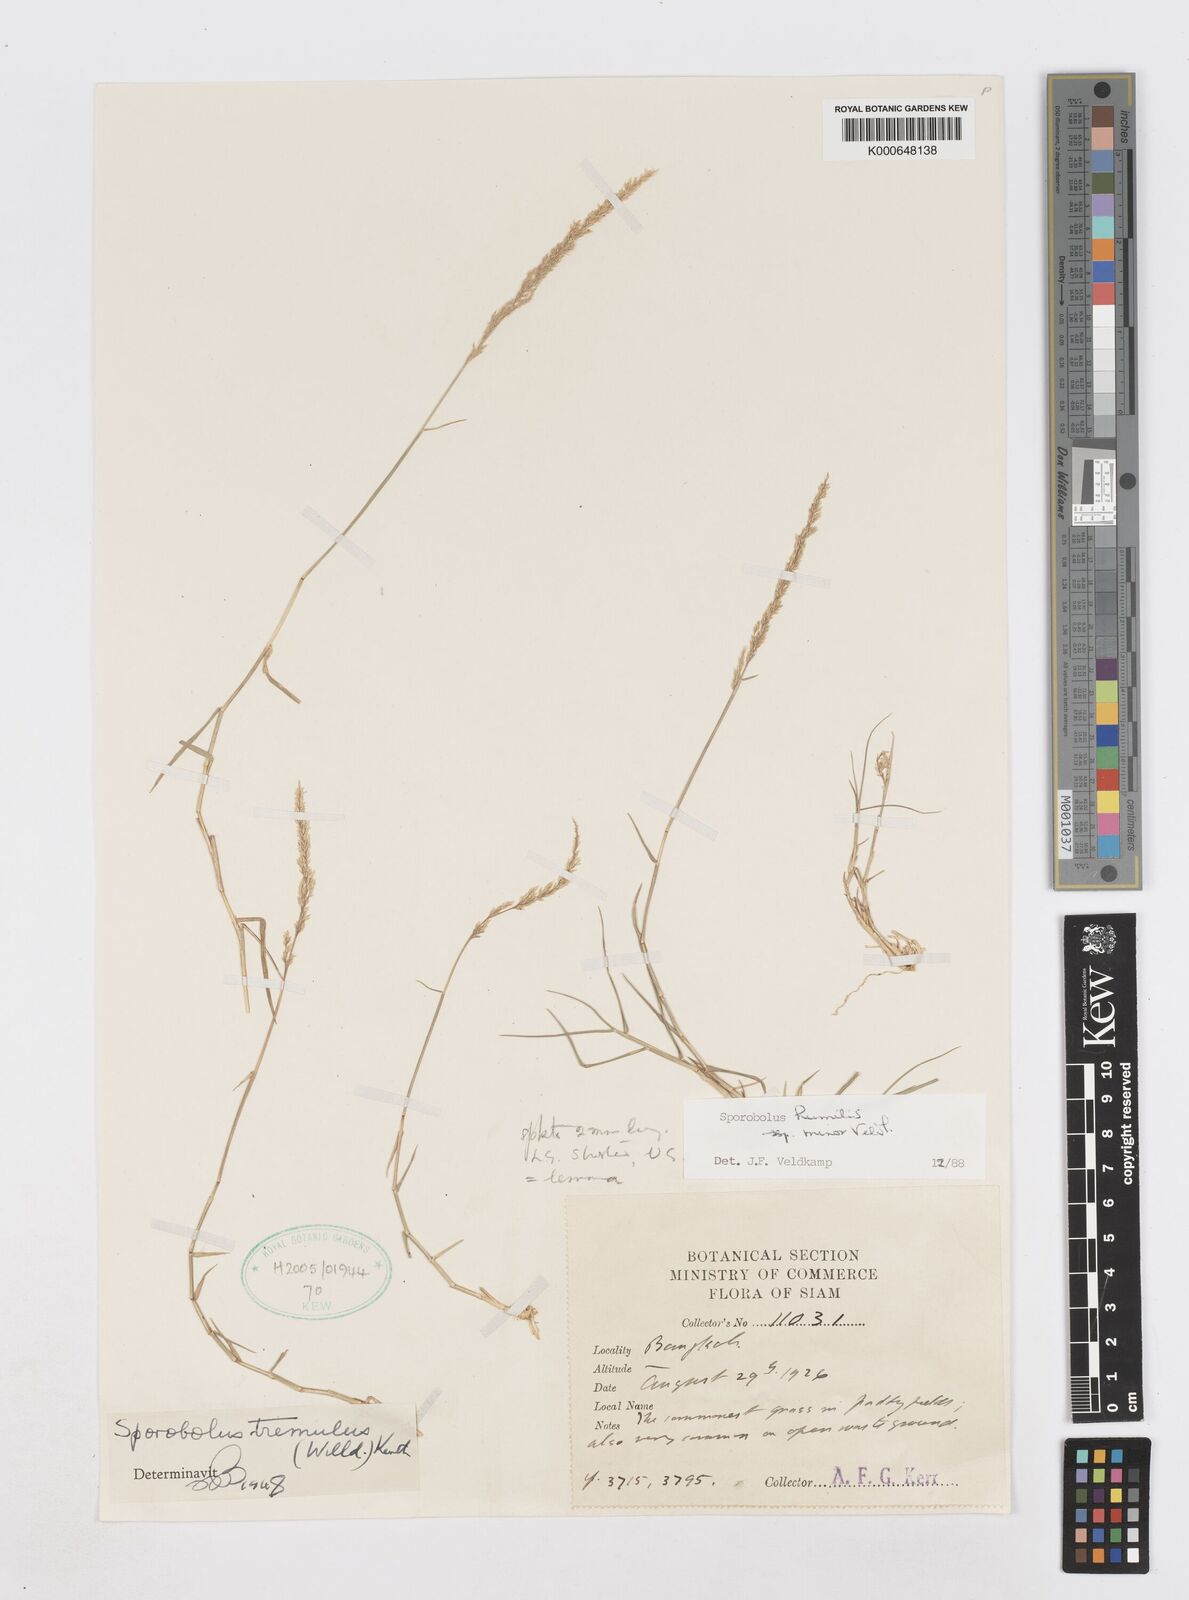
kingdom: Plantae
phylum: Tracheophyta
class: Liliopsida
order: Poales
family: Poaceae
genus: Sporobolus
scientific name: Sporobolus harmandii
